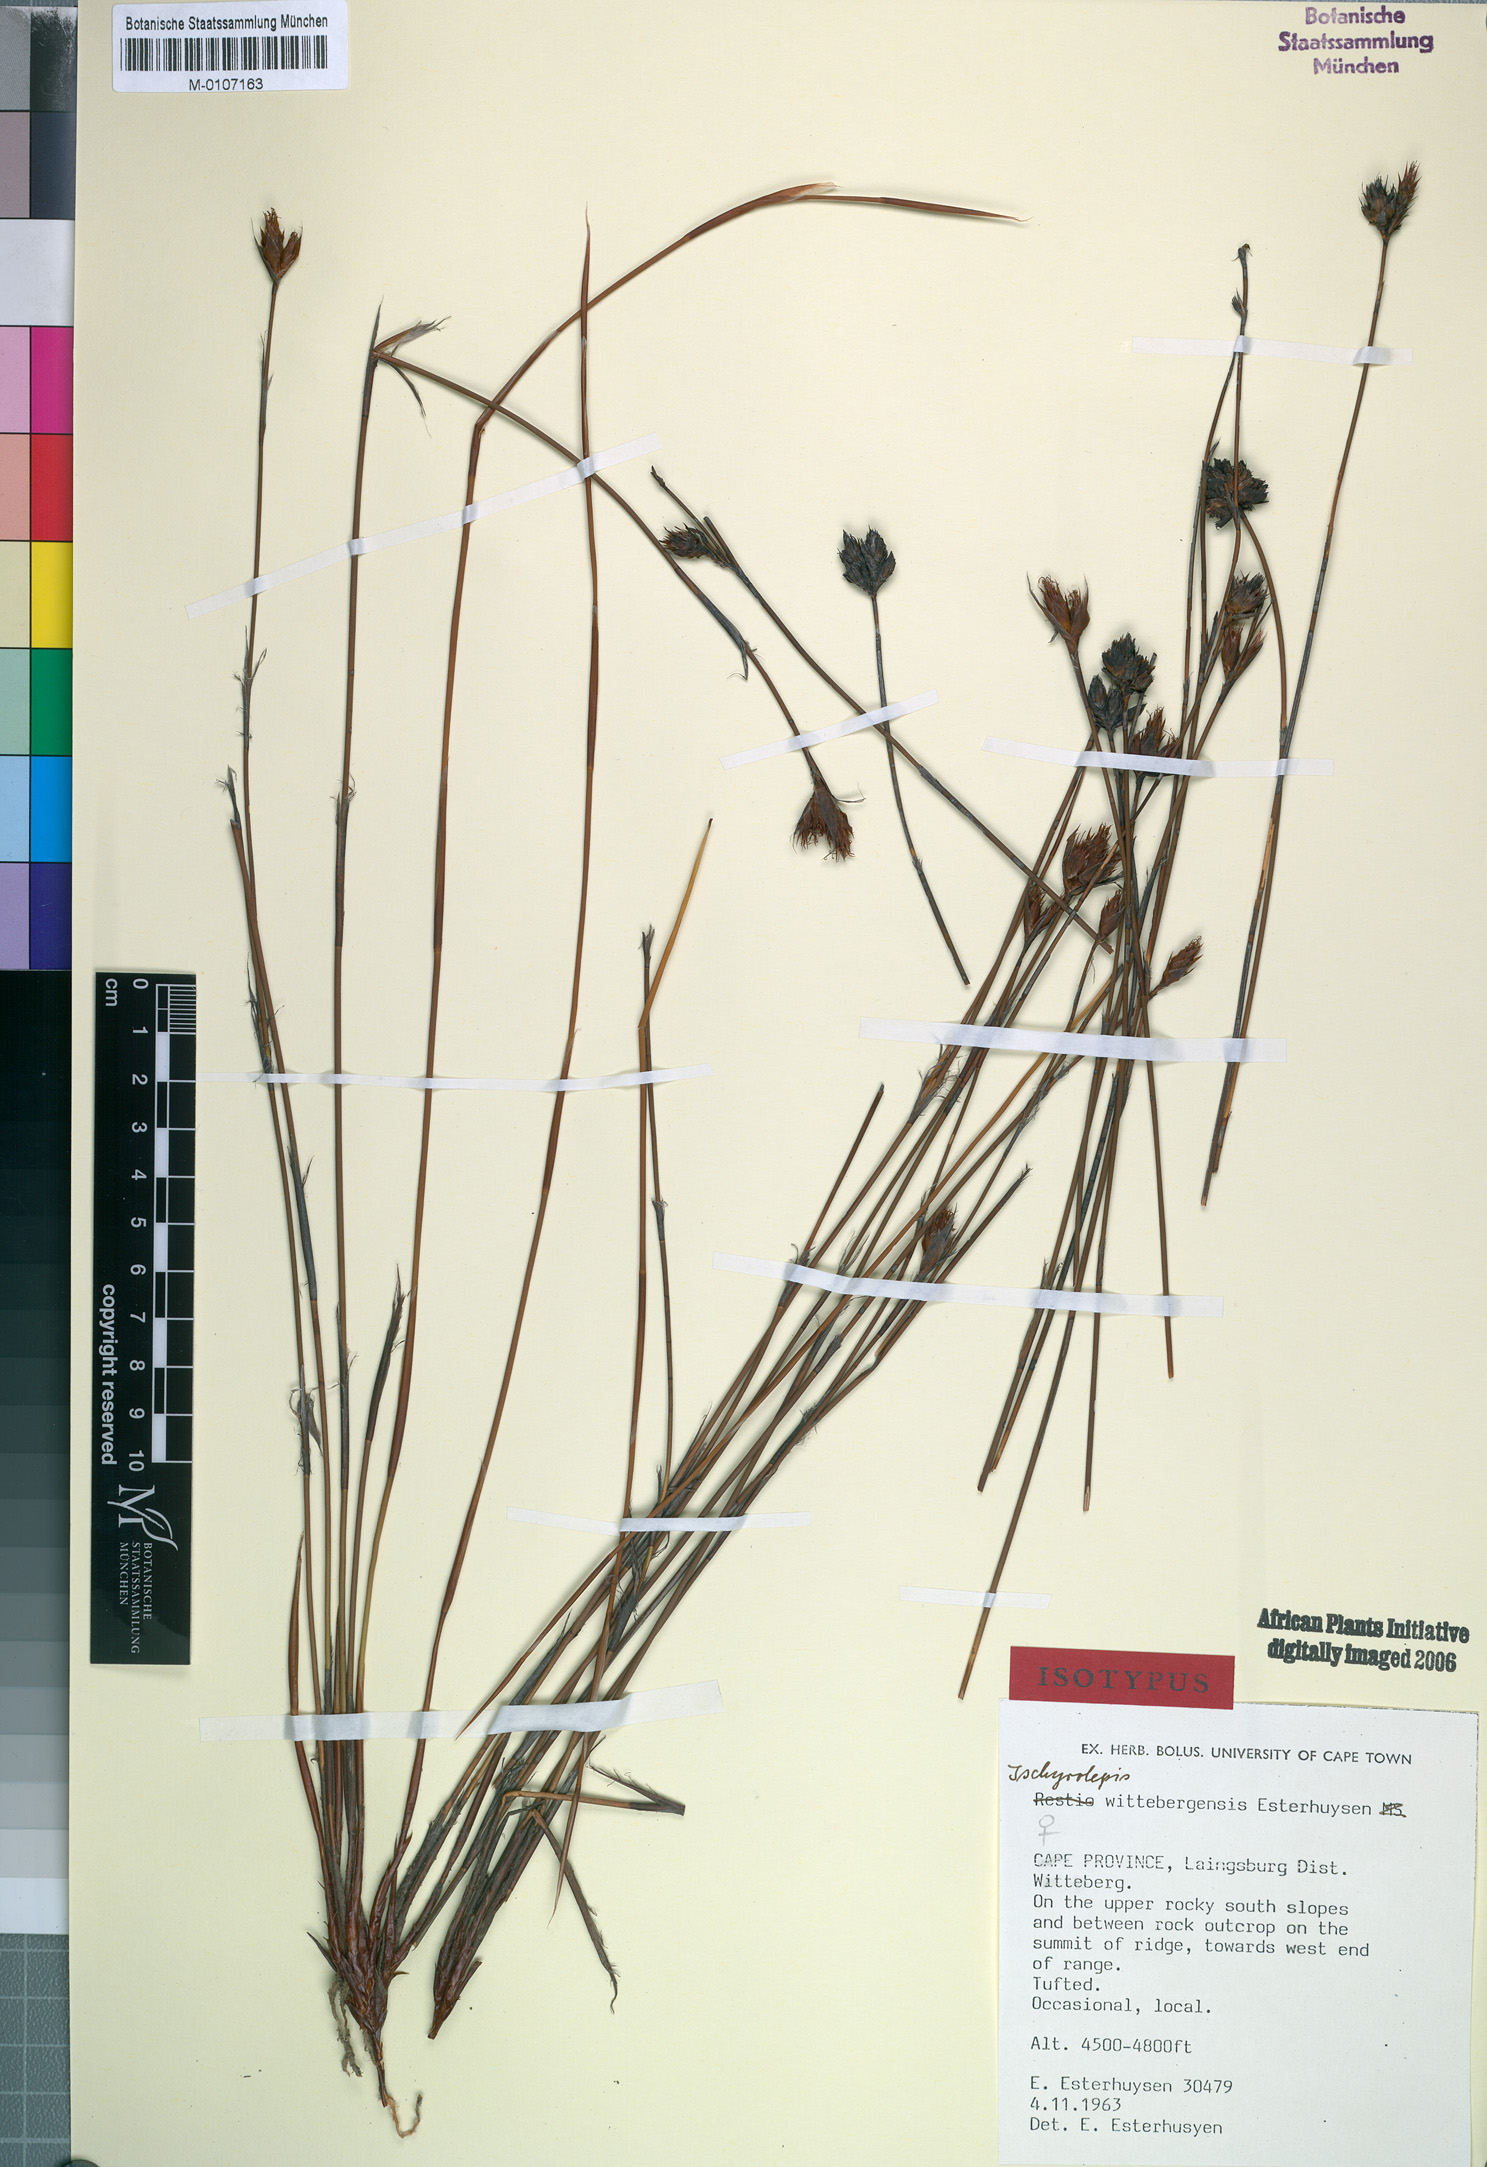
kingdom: Plantae
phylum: Tracheophyta
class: Liliopsida
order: Poales
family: Restionaceae
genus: Restio
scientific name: Restio wittebergensis
